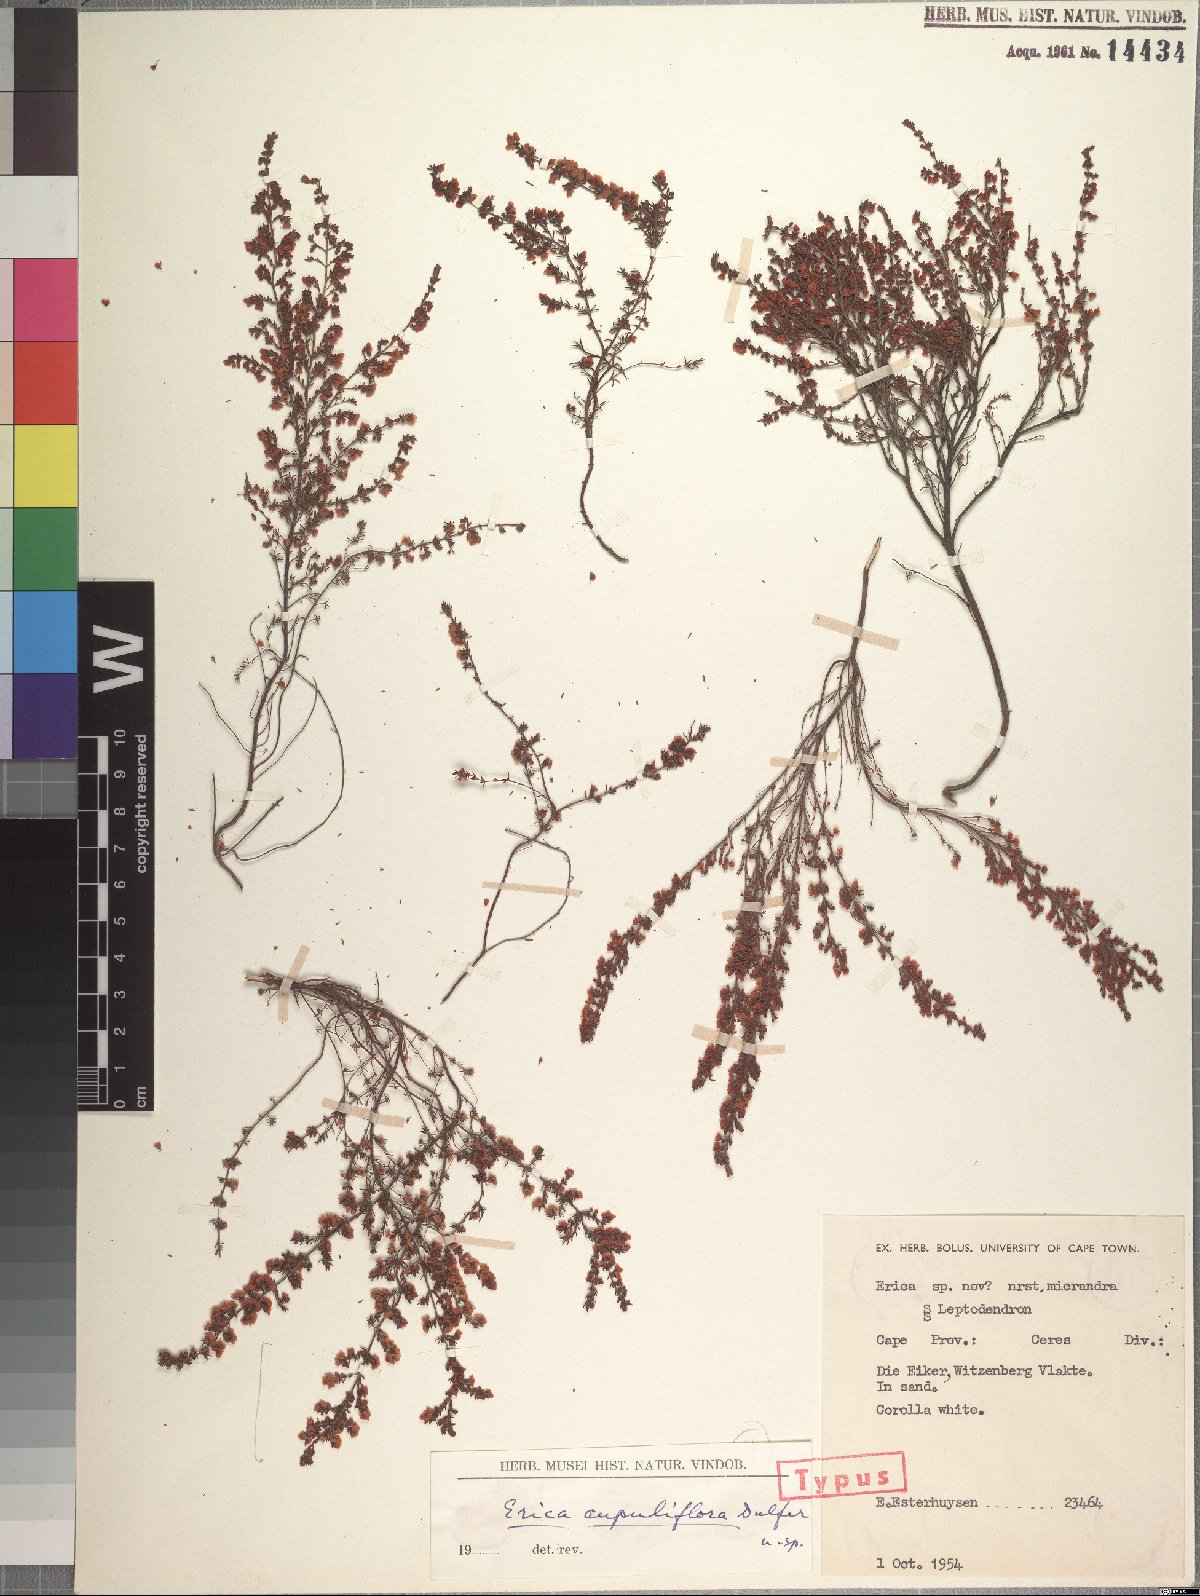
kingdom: Plantae
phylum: Tracheophyta
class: Magnoliopsida
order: Ericales
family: Ericaceae
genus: Erica
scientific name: Erica florifera
